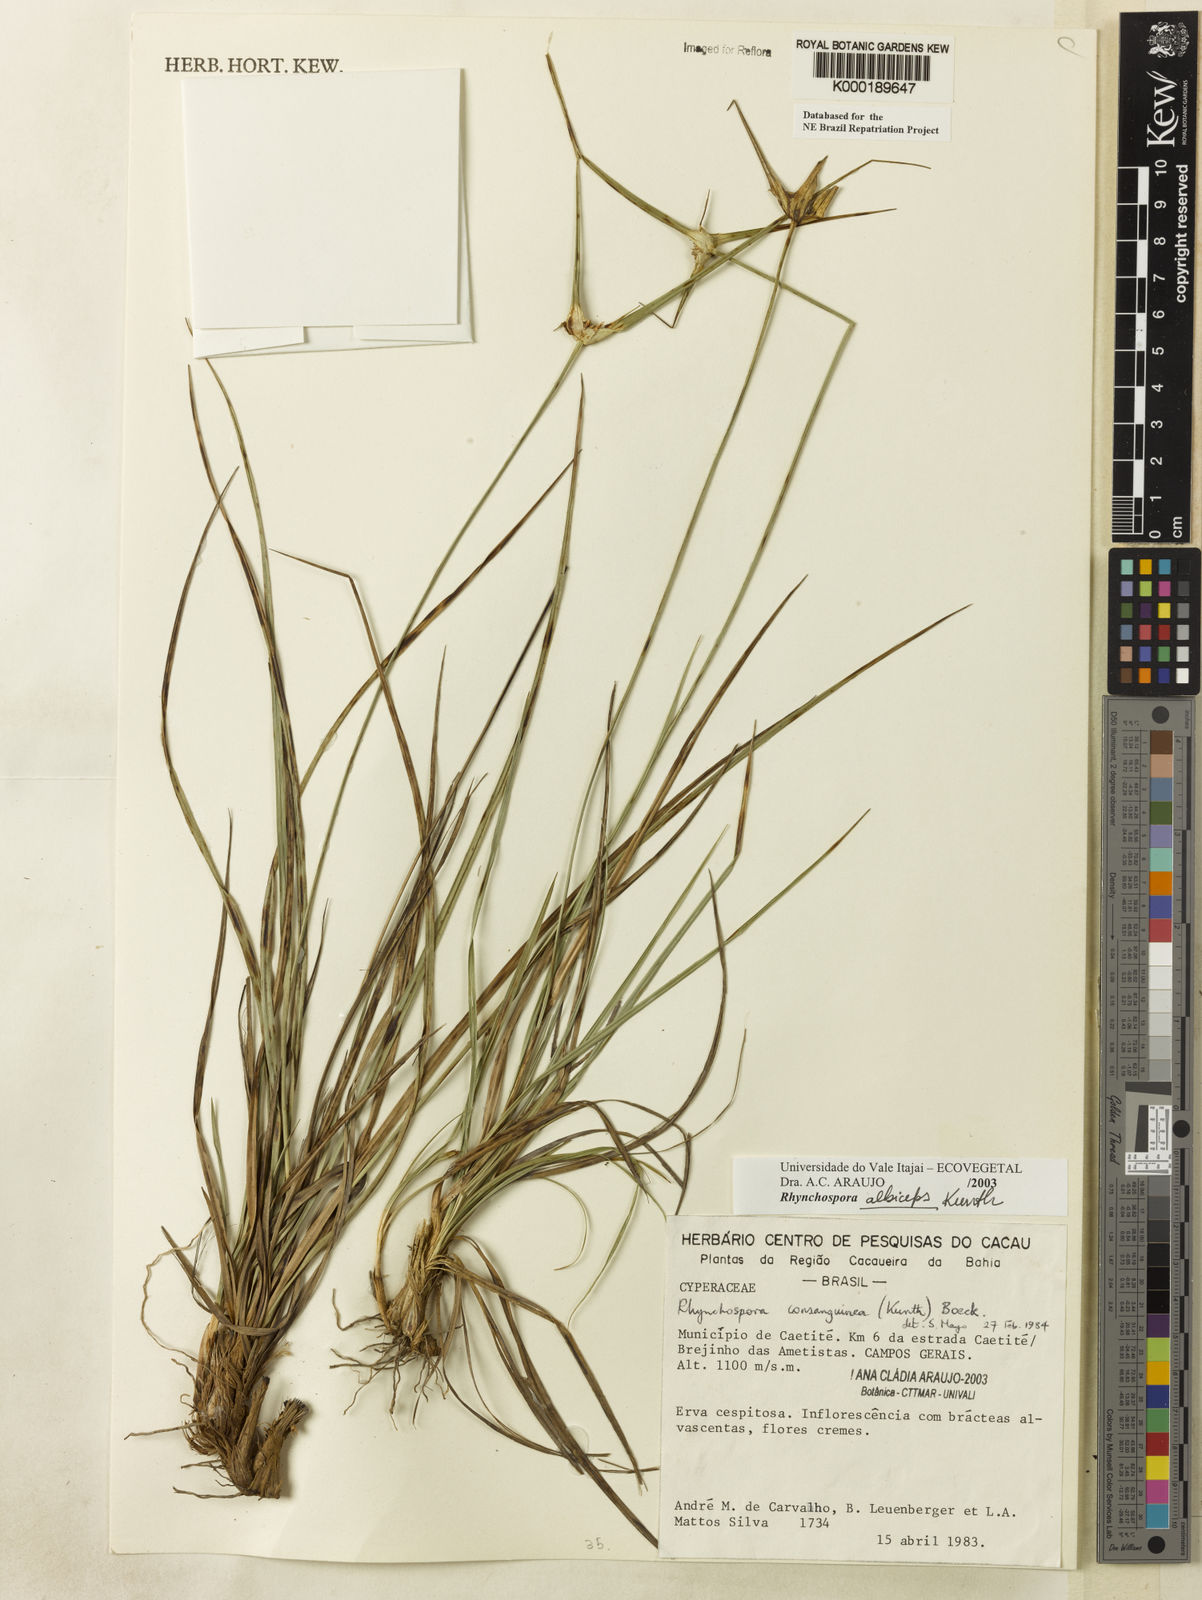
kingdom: Plantae
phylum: Tracheophyta
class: Liliopsida
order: Poales
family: Cyperaceae
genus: Rhynchospora
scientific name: Rhynchospora albiceps
